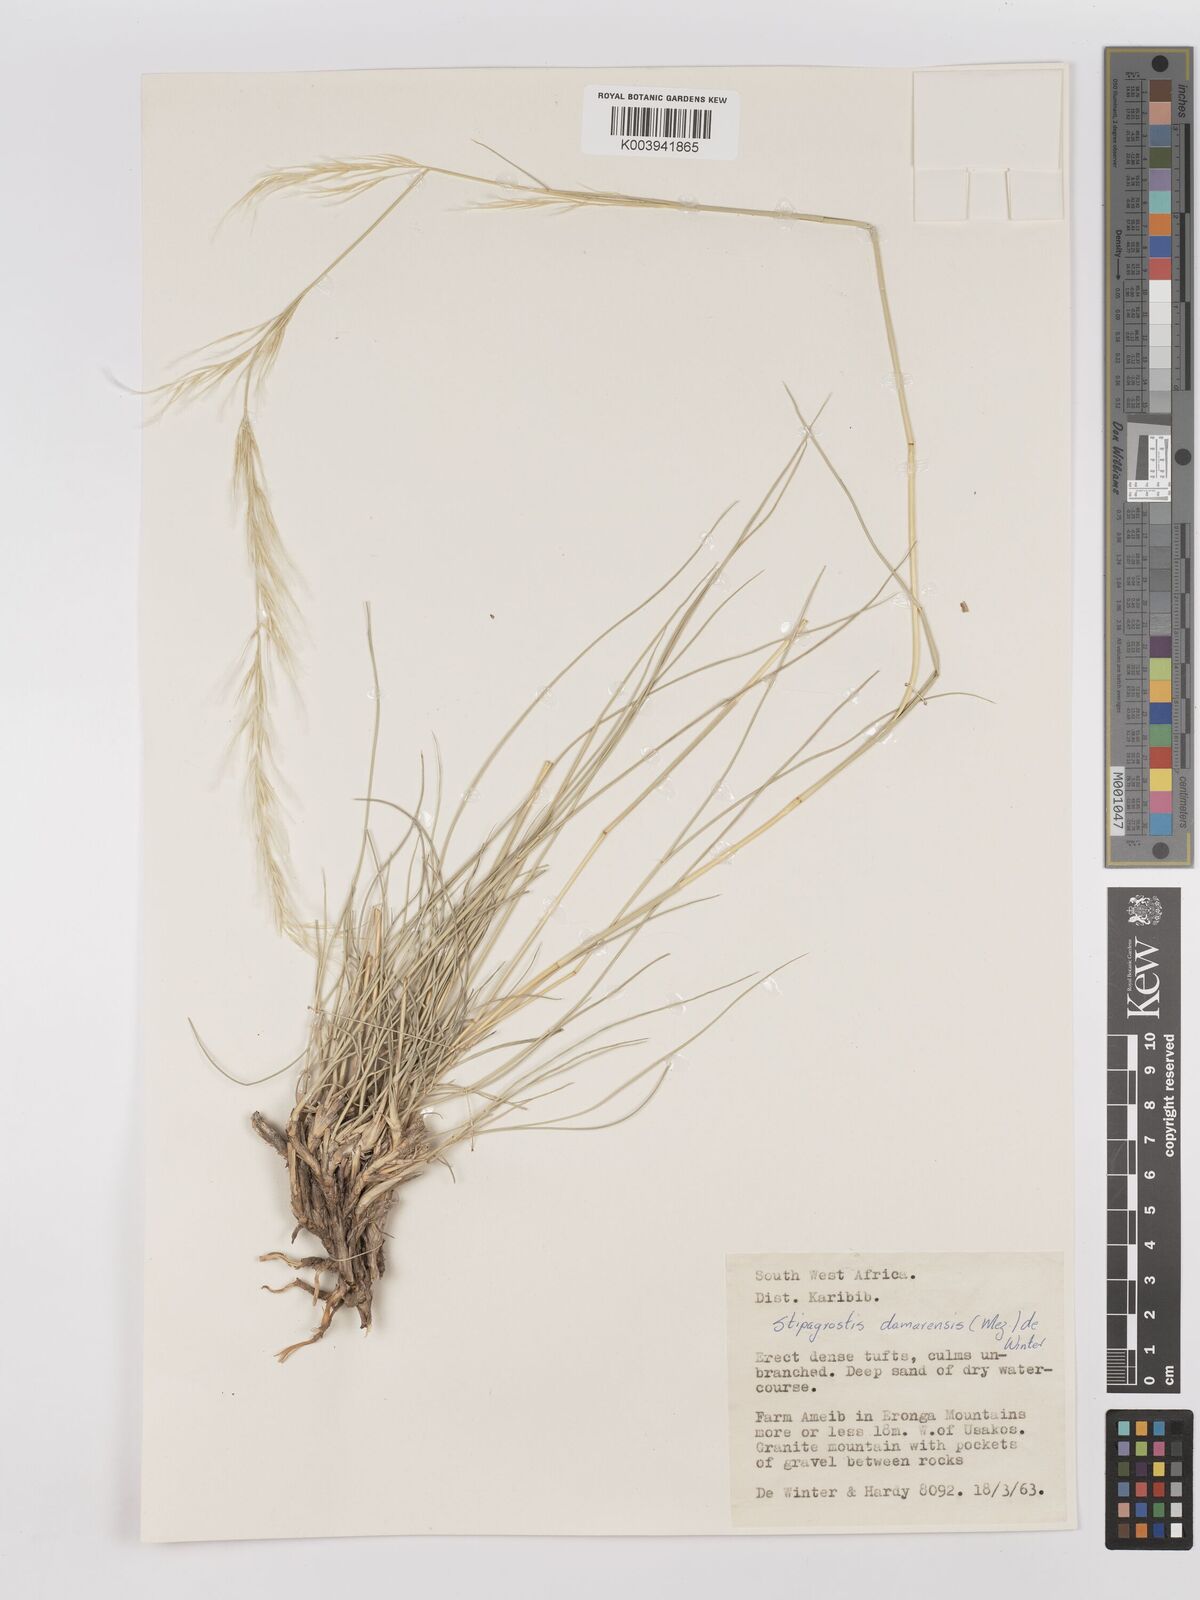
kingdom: Plantae
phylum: Tracheophyta
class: Liliopsida
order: Poales
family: Poaceae
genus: Stipagrostis
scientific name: Stipagrostis damarensis
